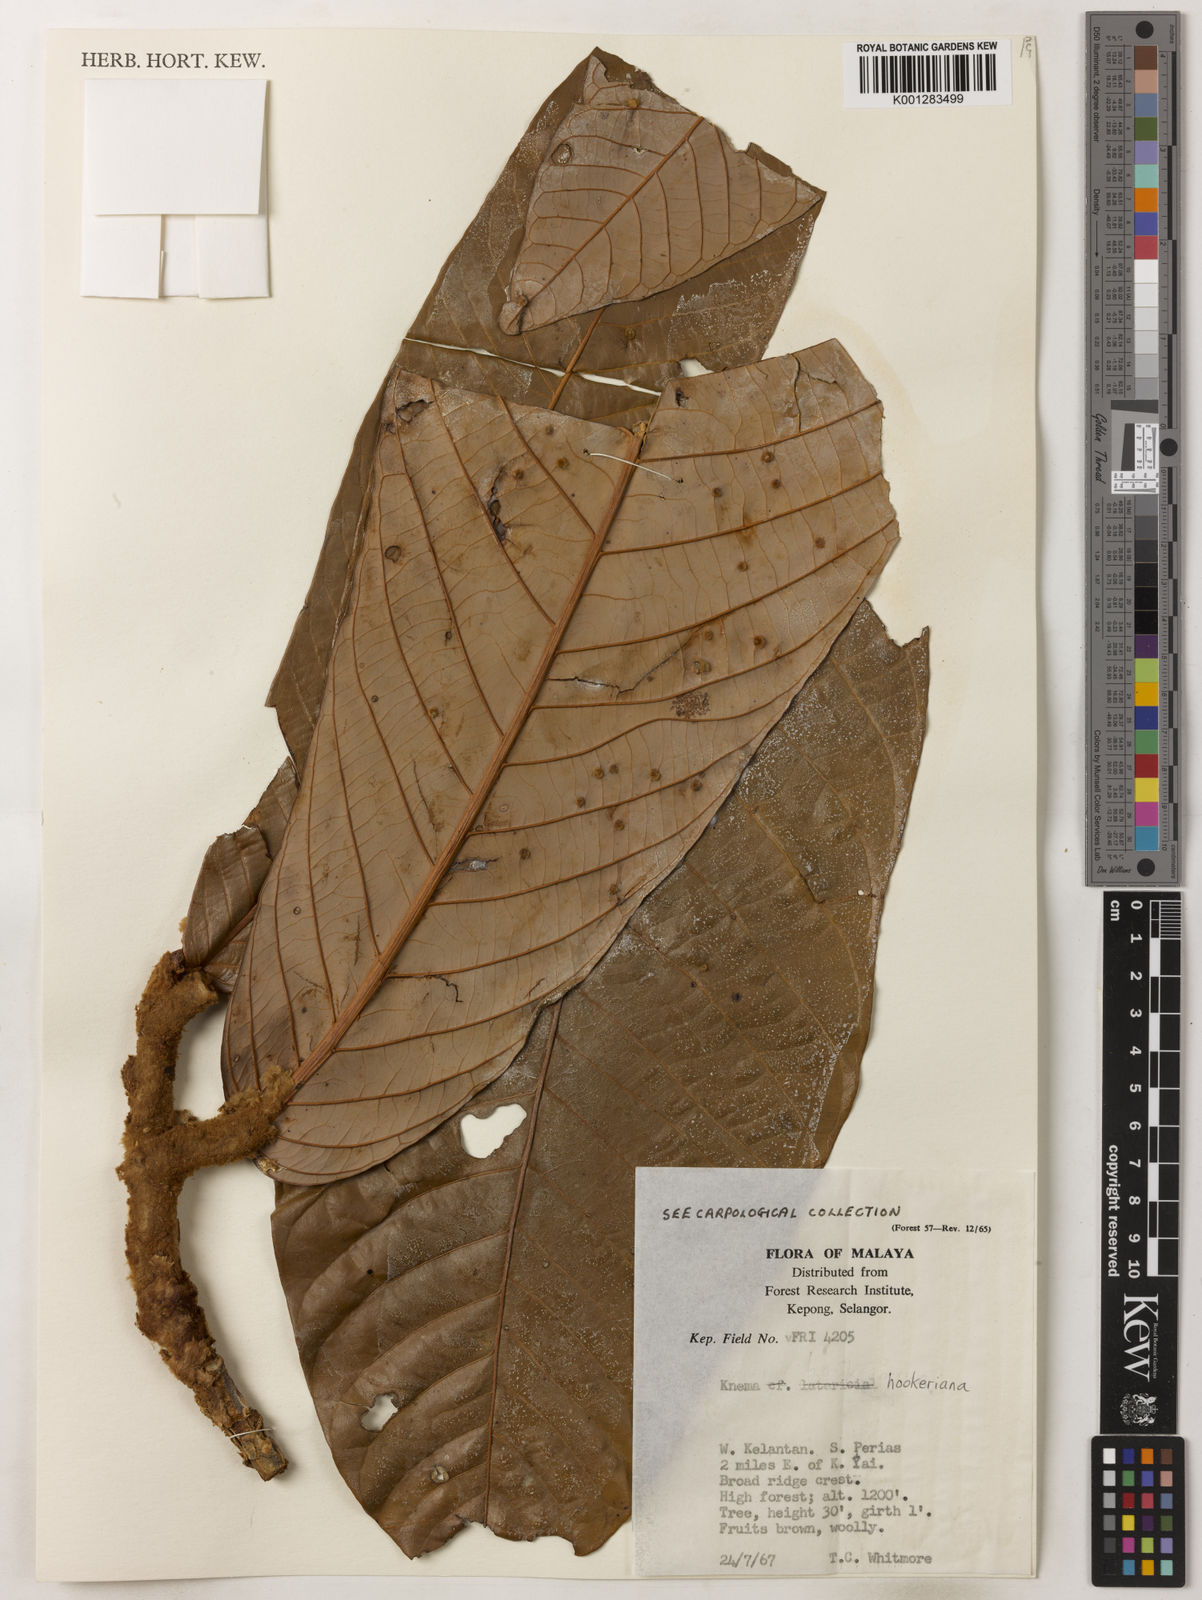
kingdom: Plantae
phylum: Tracheophyta
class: Magnoliopsida
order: Magnoliales
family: Myristicaceae
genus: Knema
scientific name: Knema hookeriana
